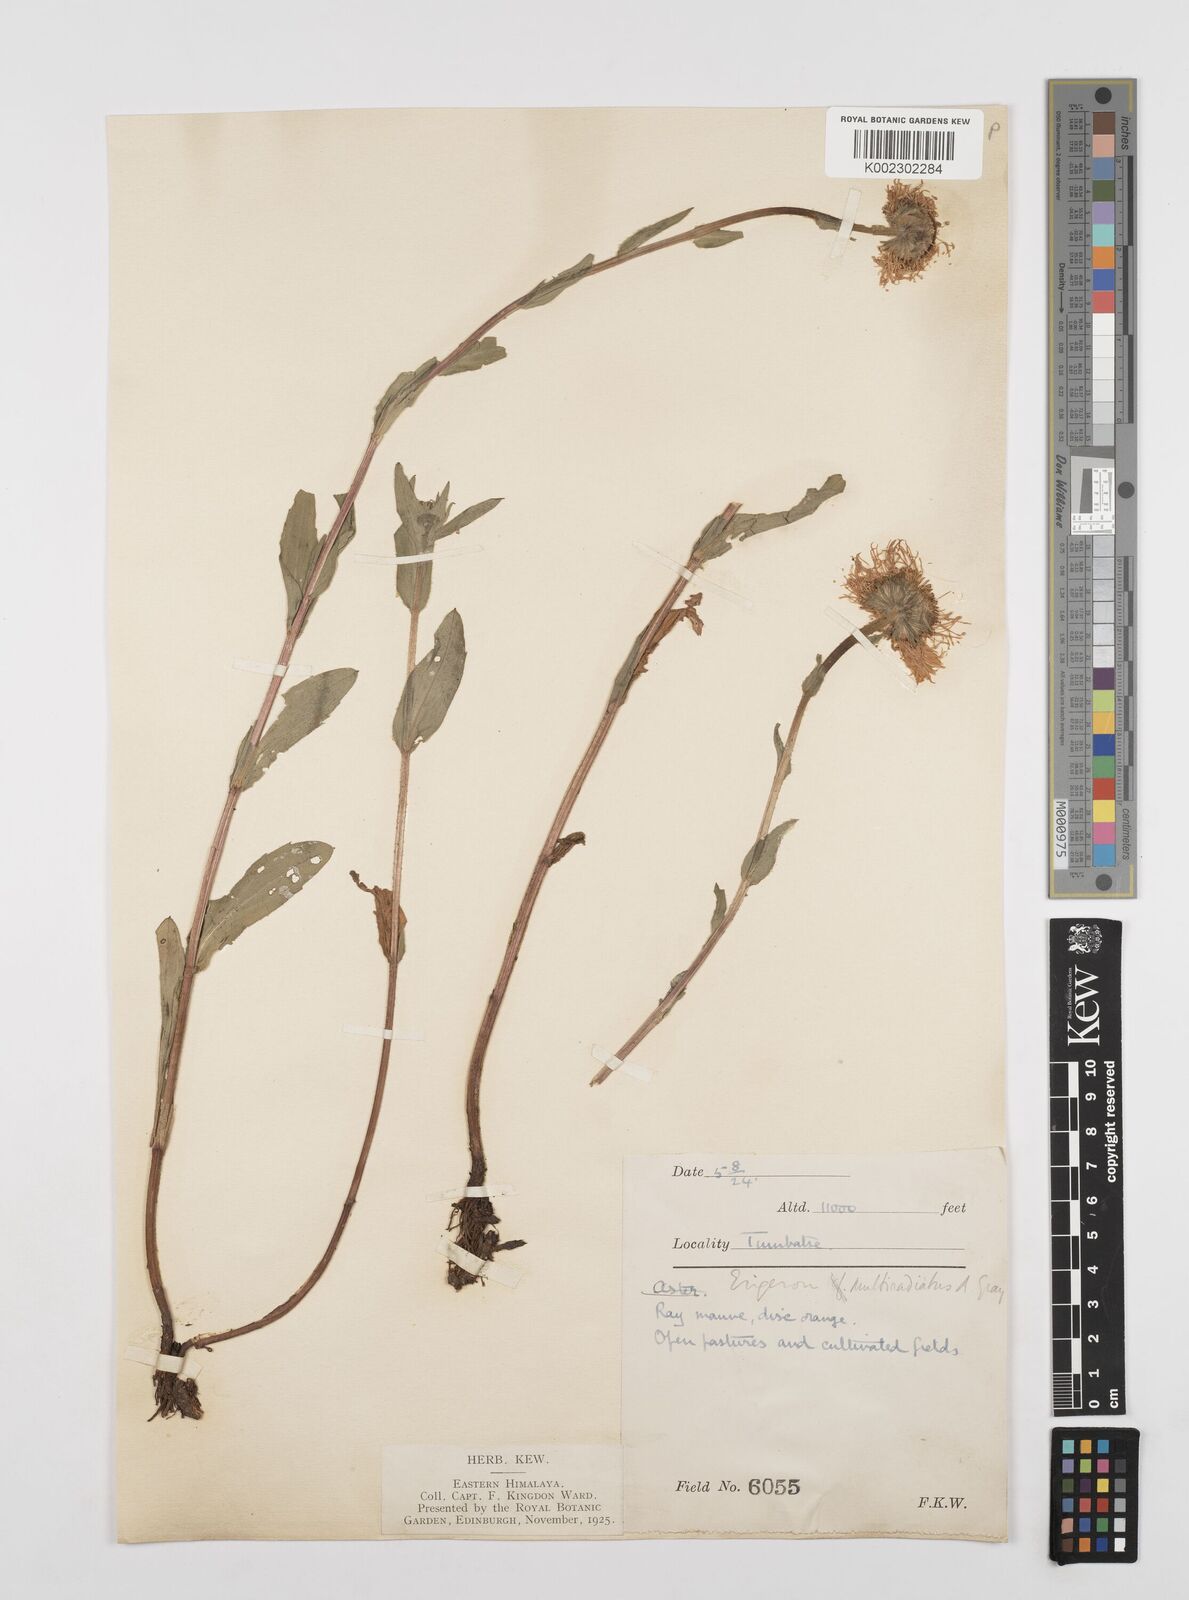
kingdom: Plantae
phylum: Tracheophyta
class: Magnoliopsida
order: Asterales
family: Asteraceae
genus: Erigeron
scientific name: Erigeron multiradiatus
